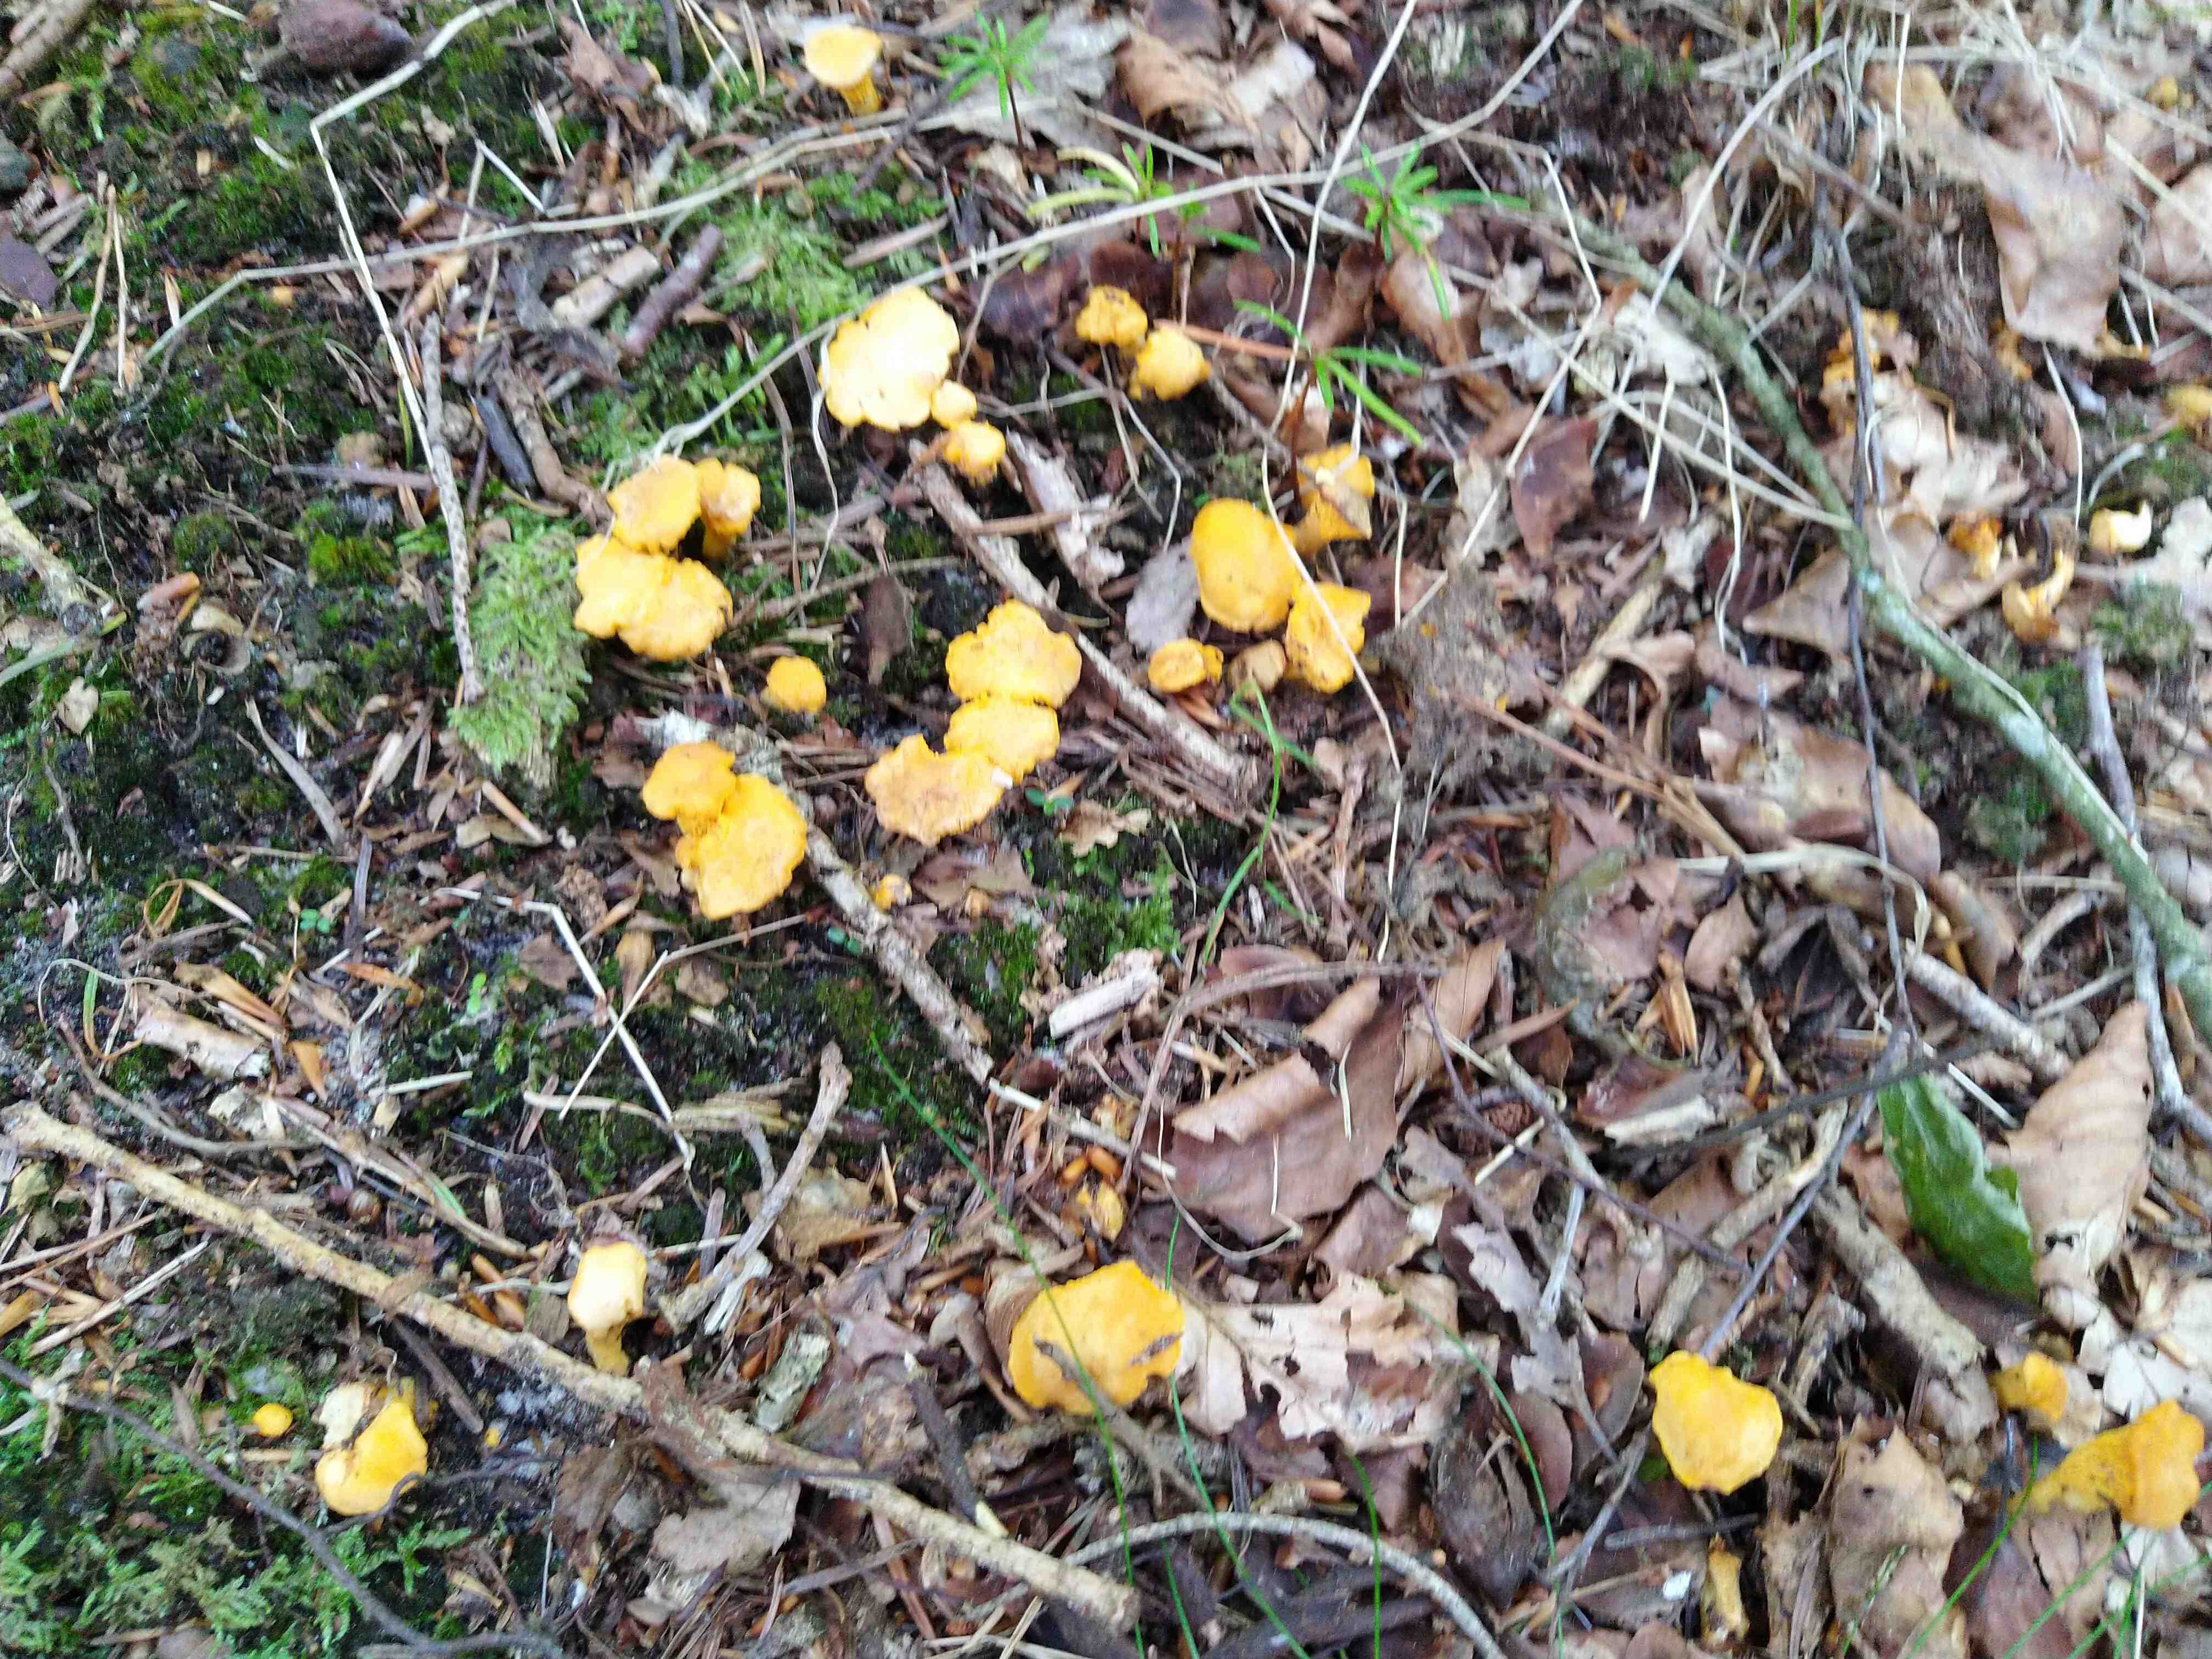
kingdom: Fungi
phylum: Basidiomycota
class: Agaricomycetes
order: Cantharellales
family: Hydnaceae
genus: Cantharellus
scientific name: Cantharellus cibarius
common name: almindelig kantarel
